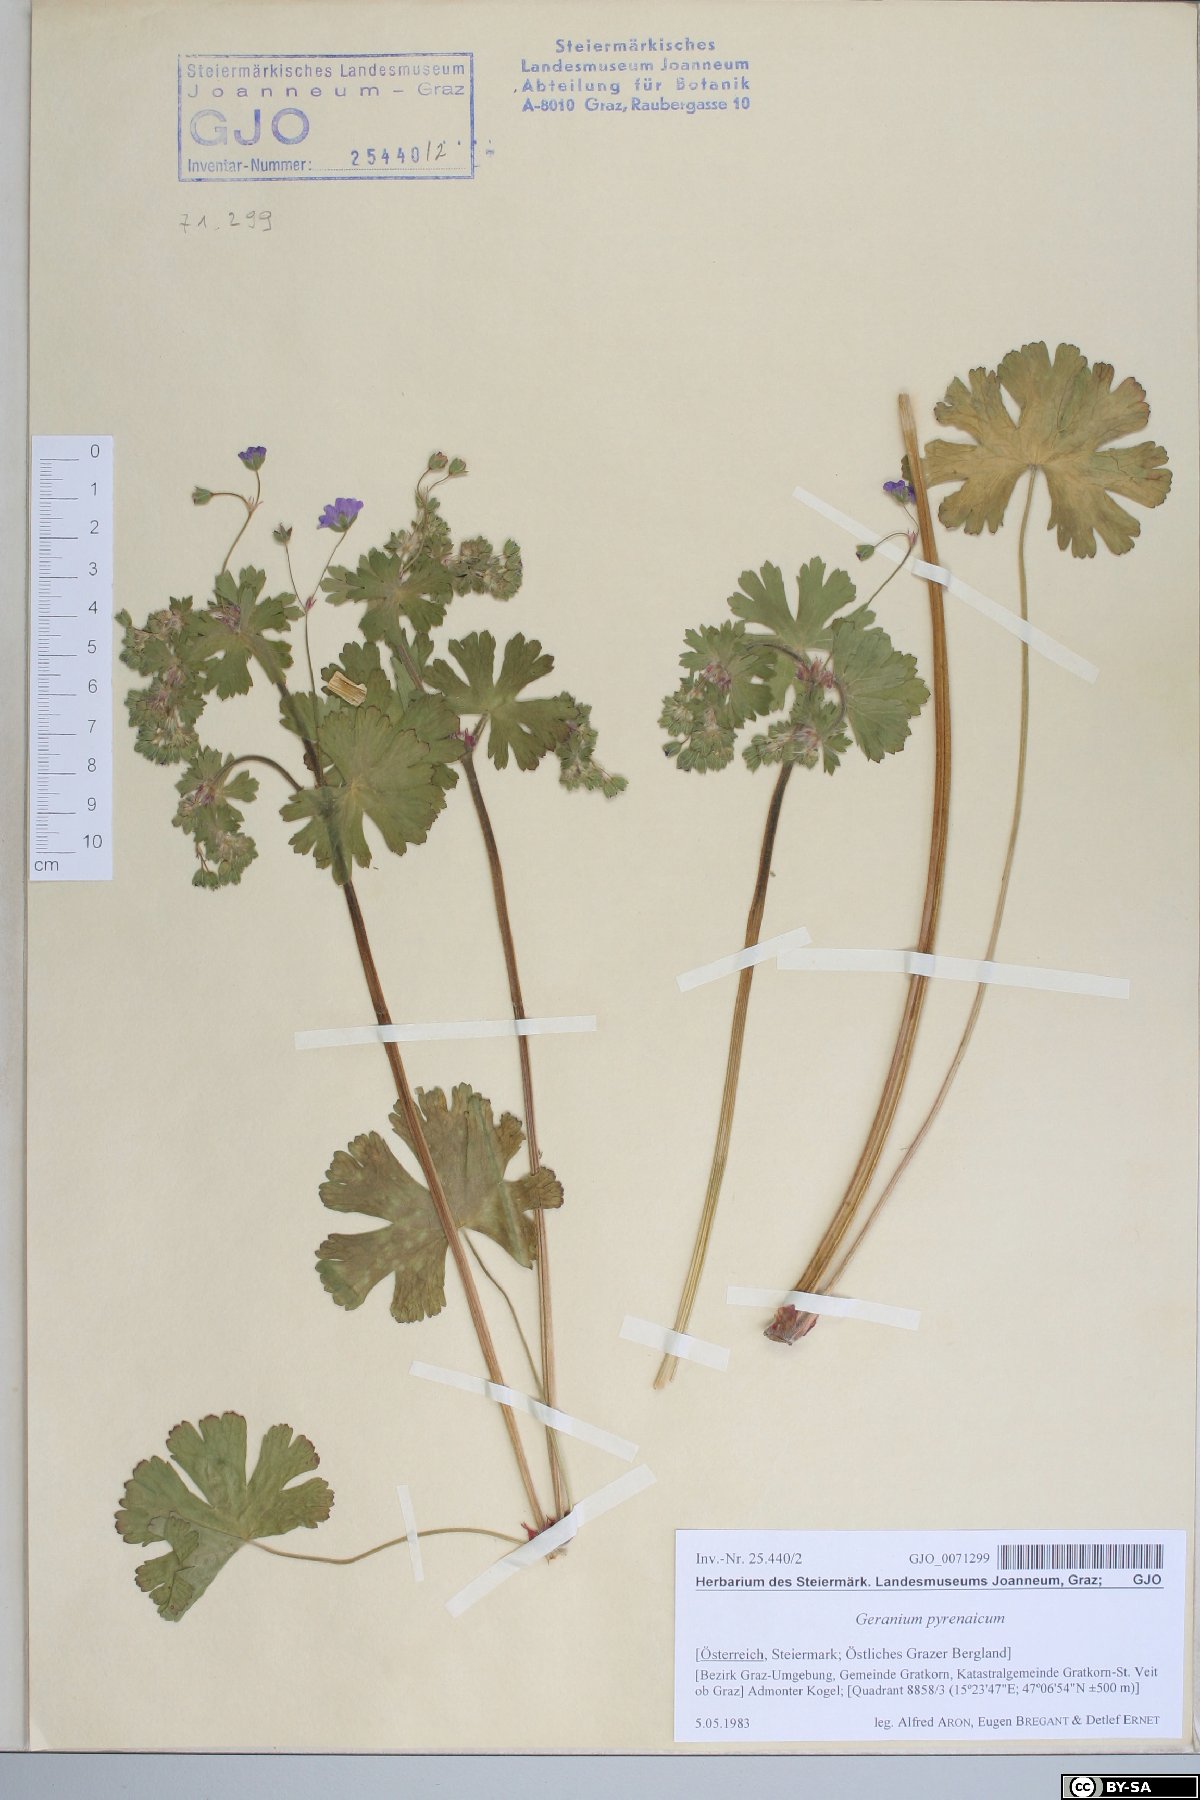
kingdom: Plantae
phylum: Tracheophyta
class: Magnoliopsida
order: Geraniales
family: Geraniaceae
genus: Geranium
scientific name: Geranium pyrenaicum
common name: Hedgerow crane's-bill
